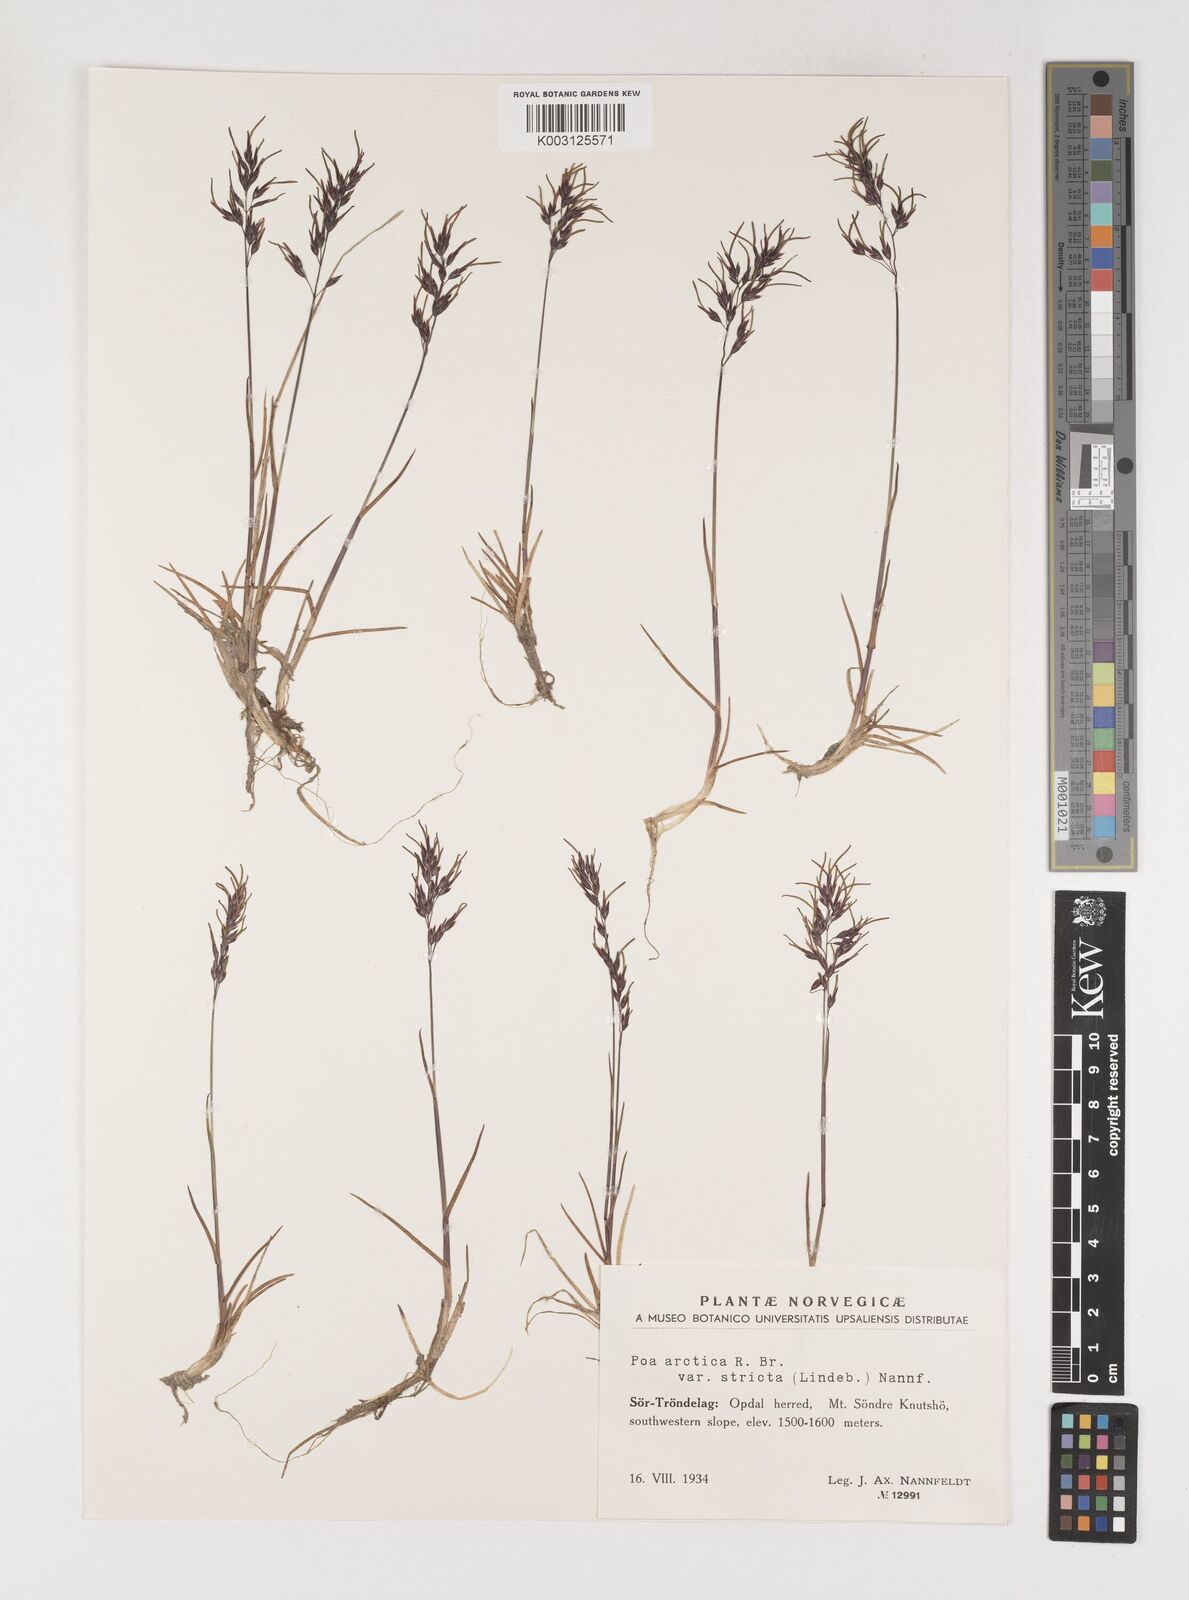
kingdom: Plantae
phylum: Tracheophyta
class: Liliopsida
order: Poales
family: Poaceae
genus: Poa
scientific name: Poa arctica
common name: Arctic bluegrass
